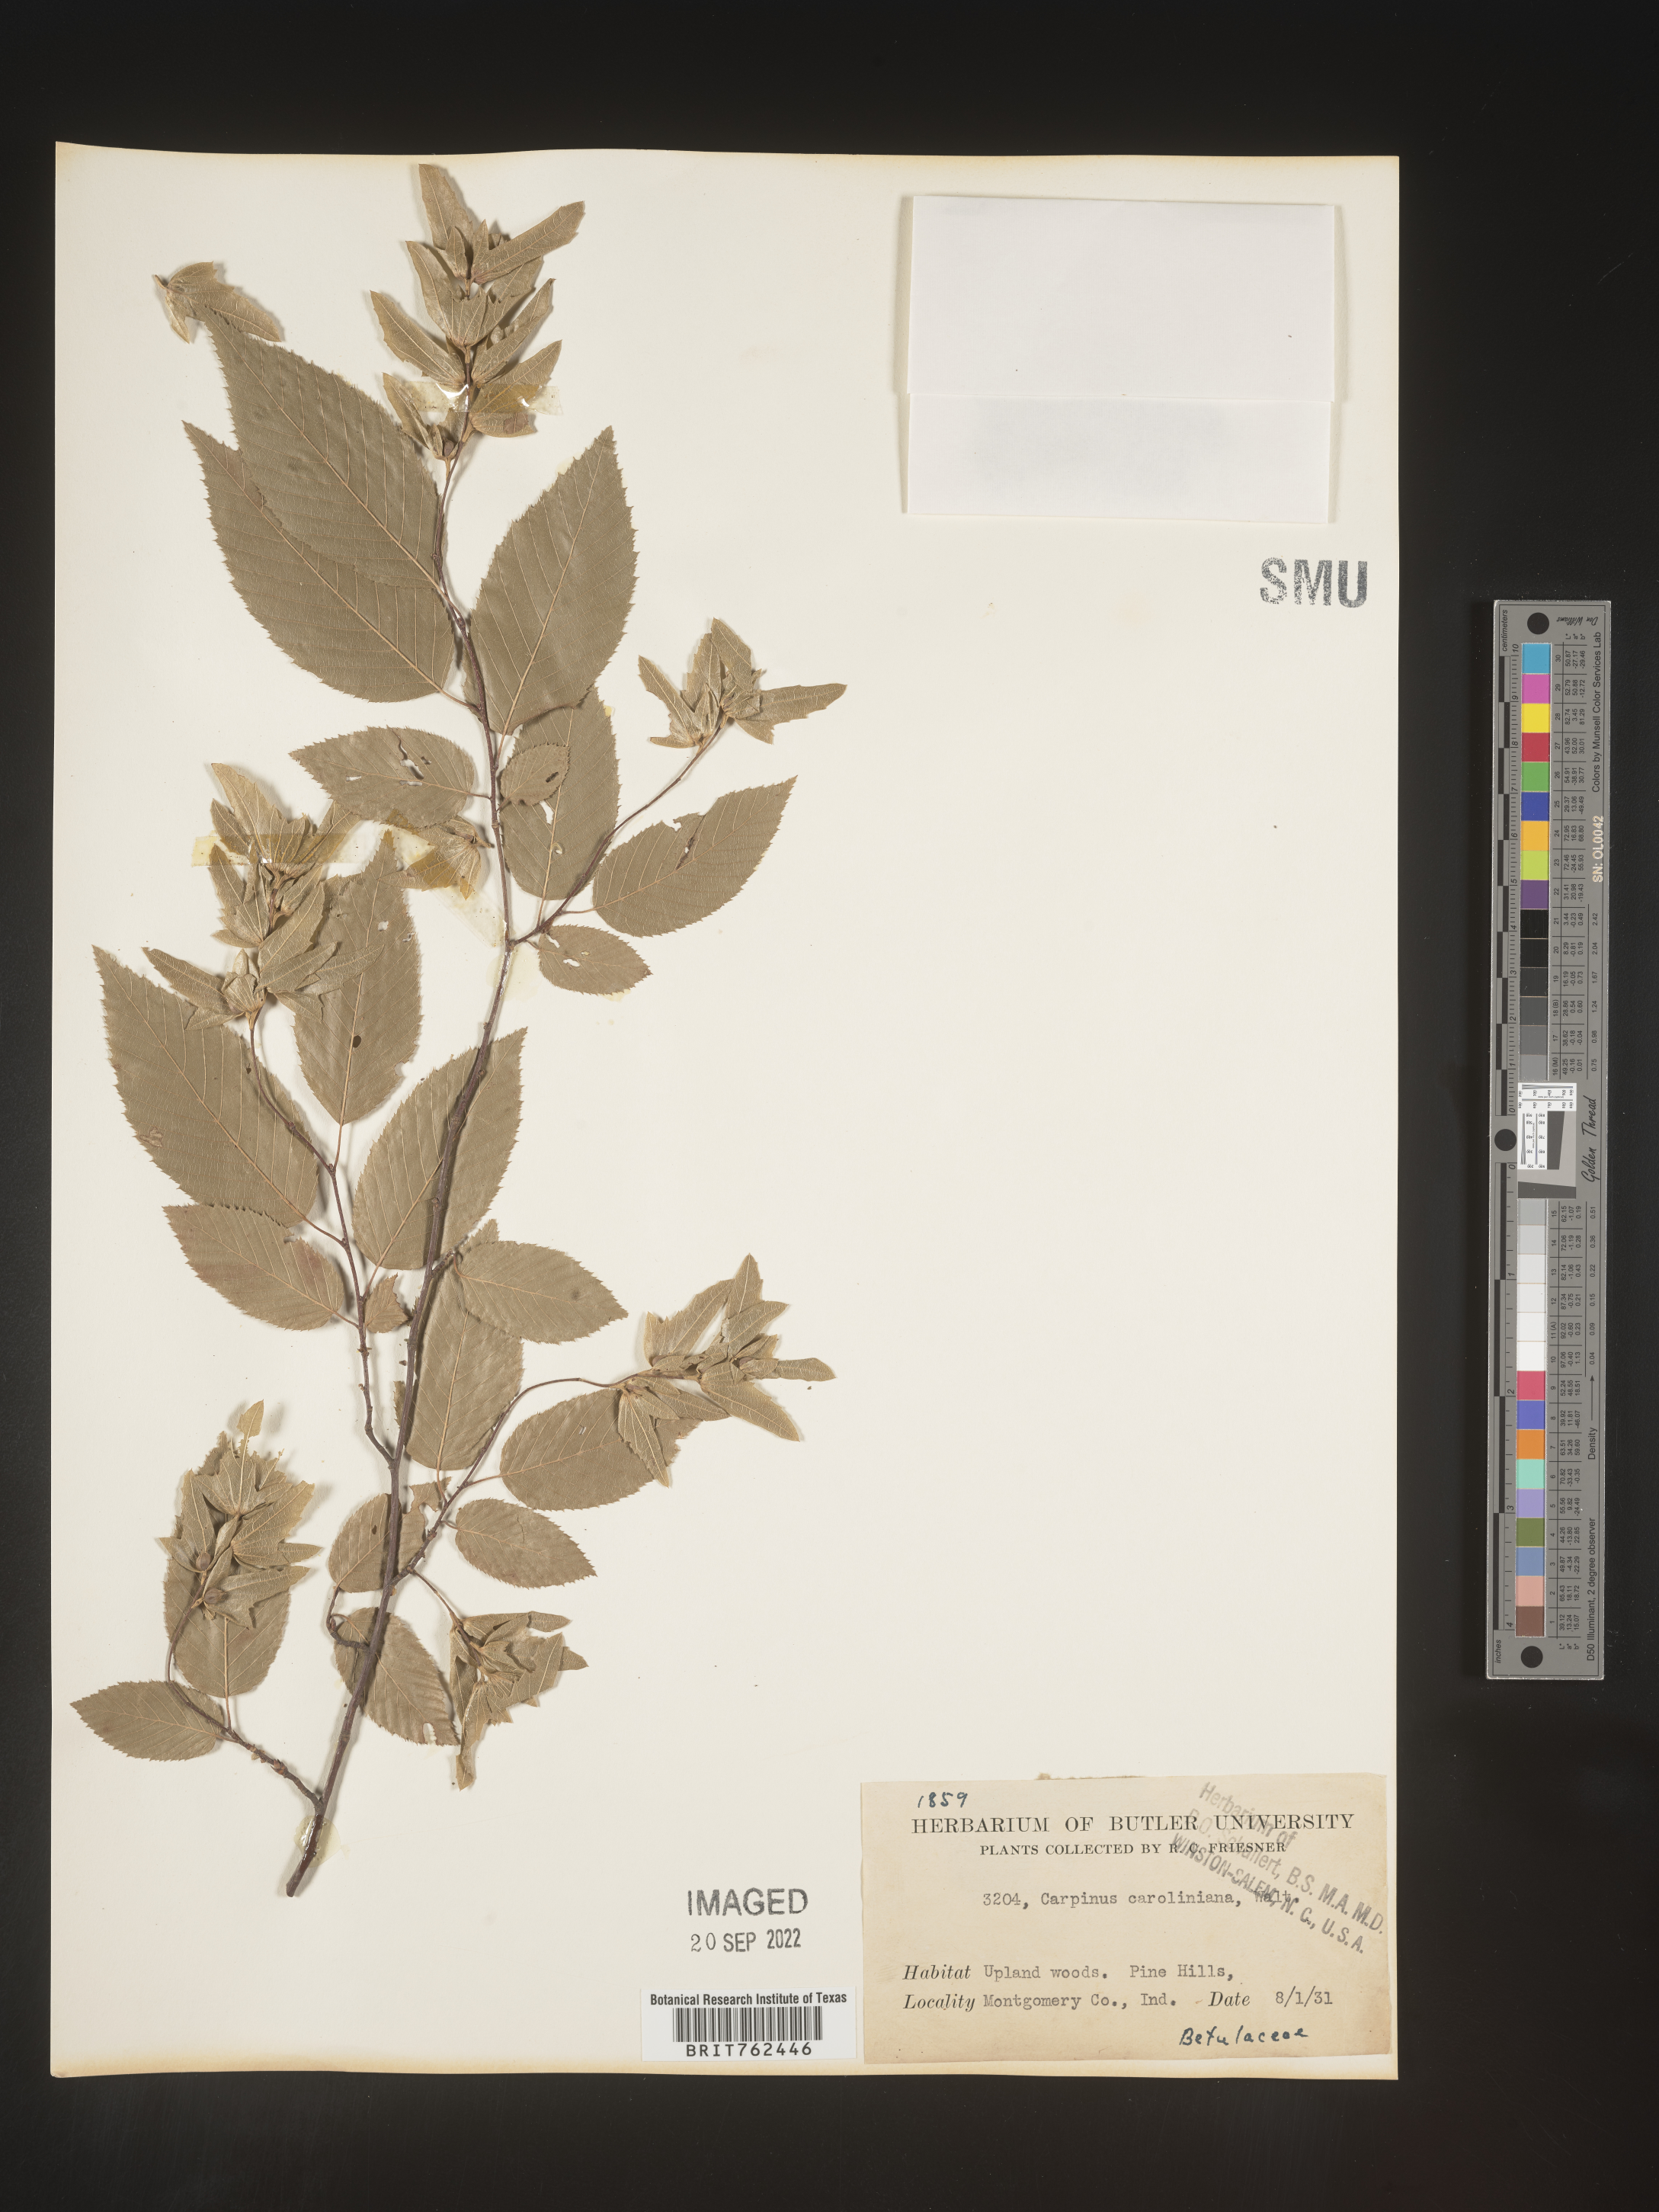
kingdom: Plantae
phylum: Tracheophyta
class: Magnoliopsida
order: Fagales
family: Betulaceae
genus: Carpinus
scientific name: Carpinus caroliniana
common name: American hornbeam
